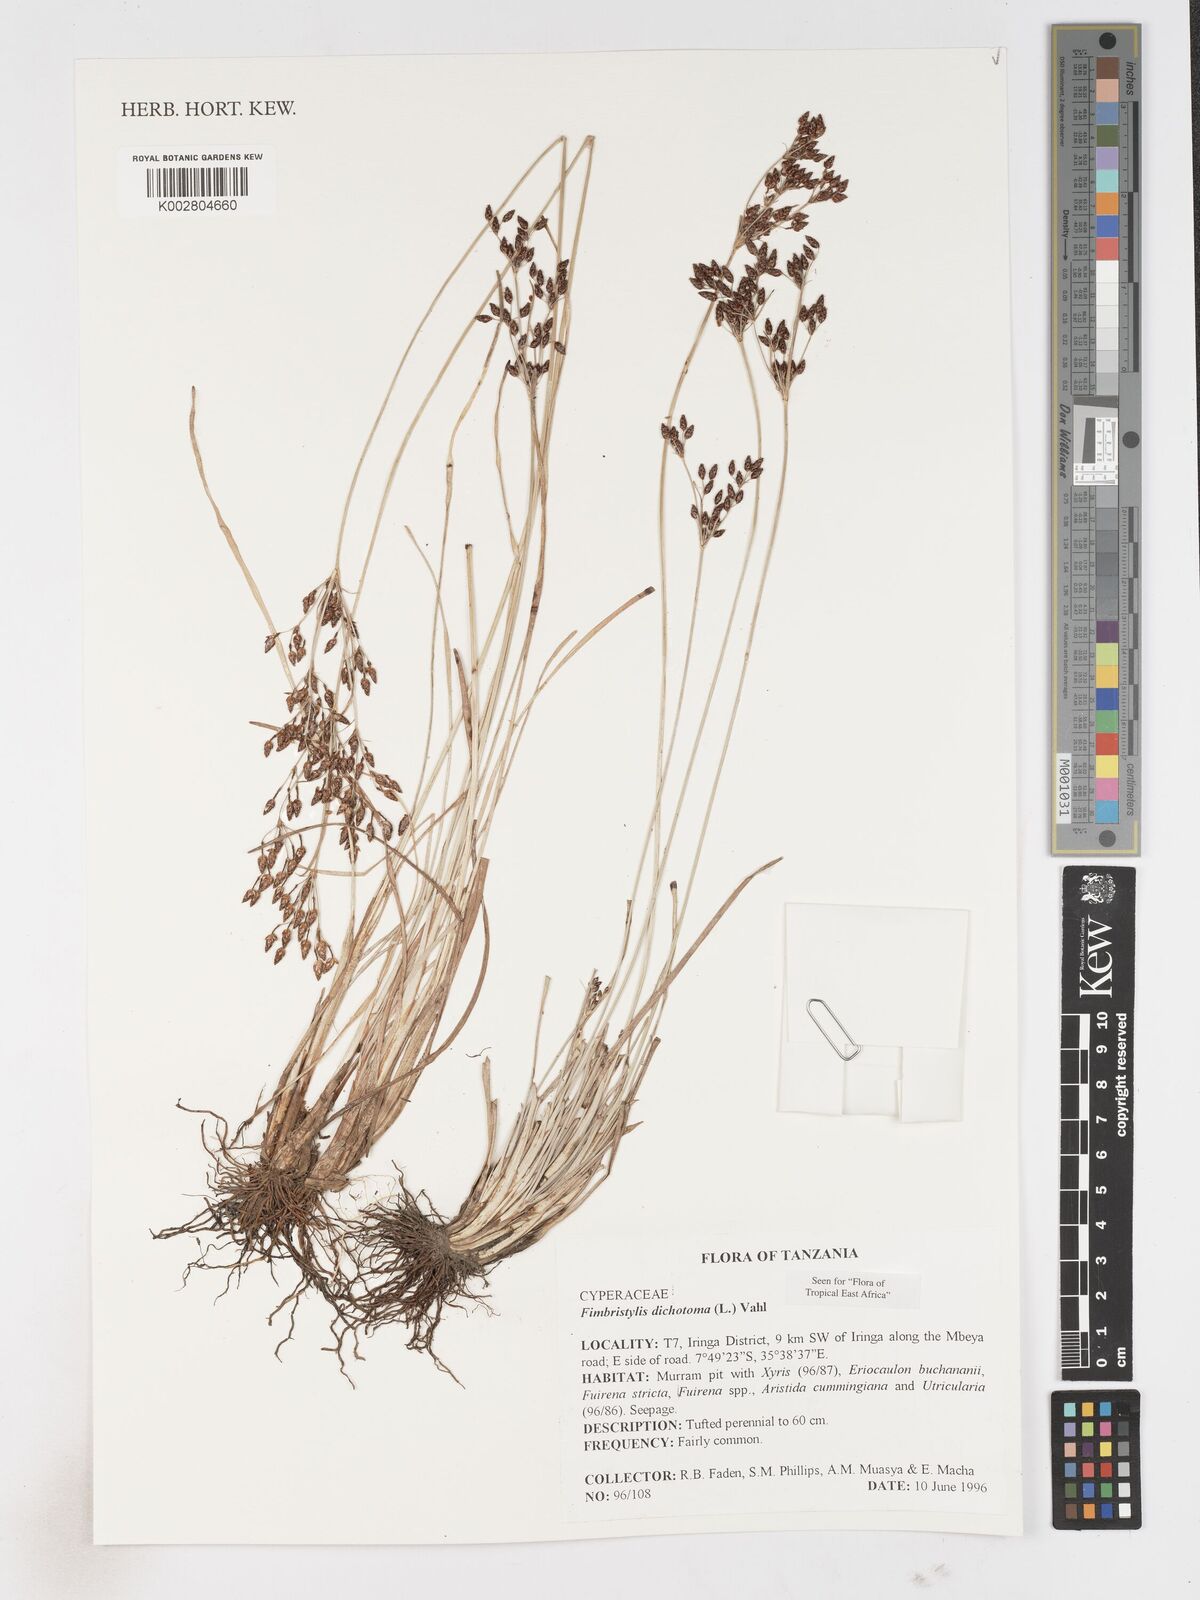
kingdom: Plantae
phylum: Tracheophyta
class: Liliopsida
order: Poales
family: Cyperaceae
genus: Fimbristylis
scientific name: Fimbristylis dichotoma
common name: Forked fimbry
